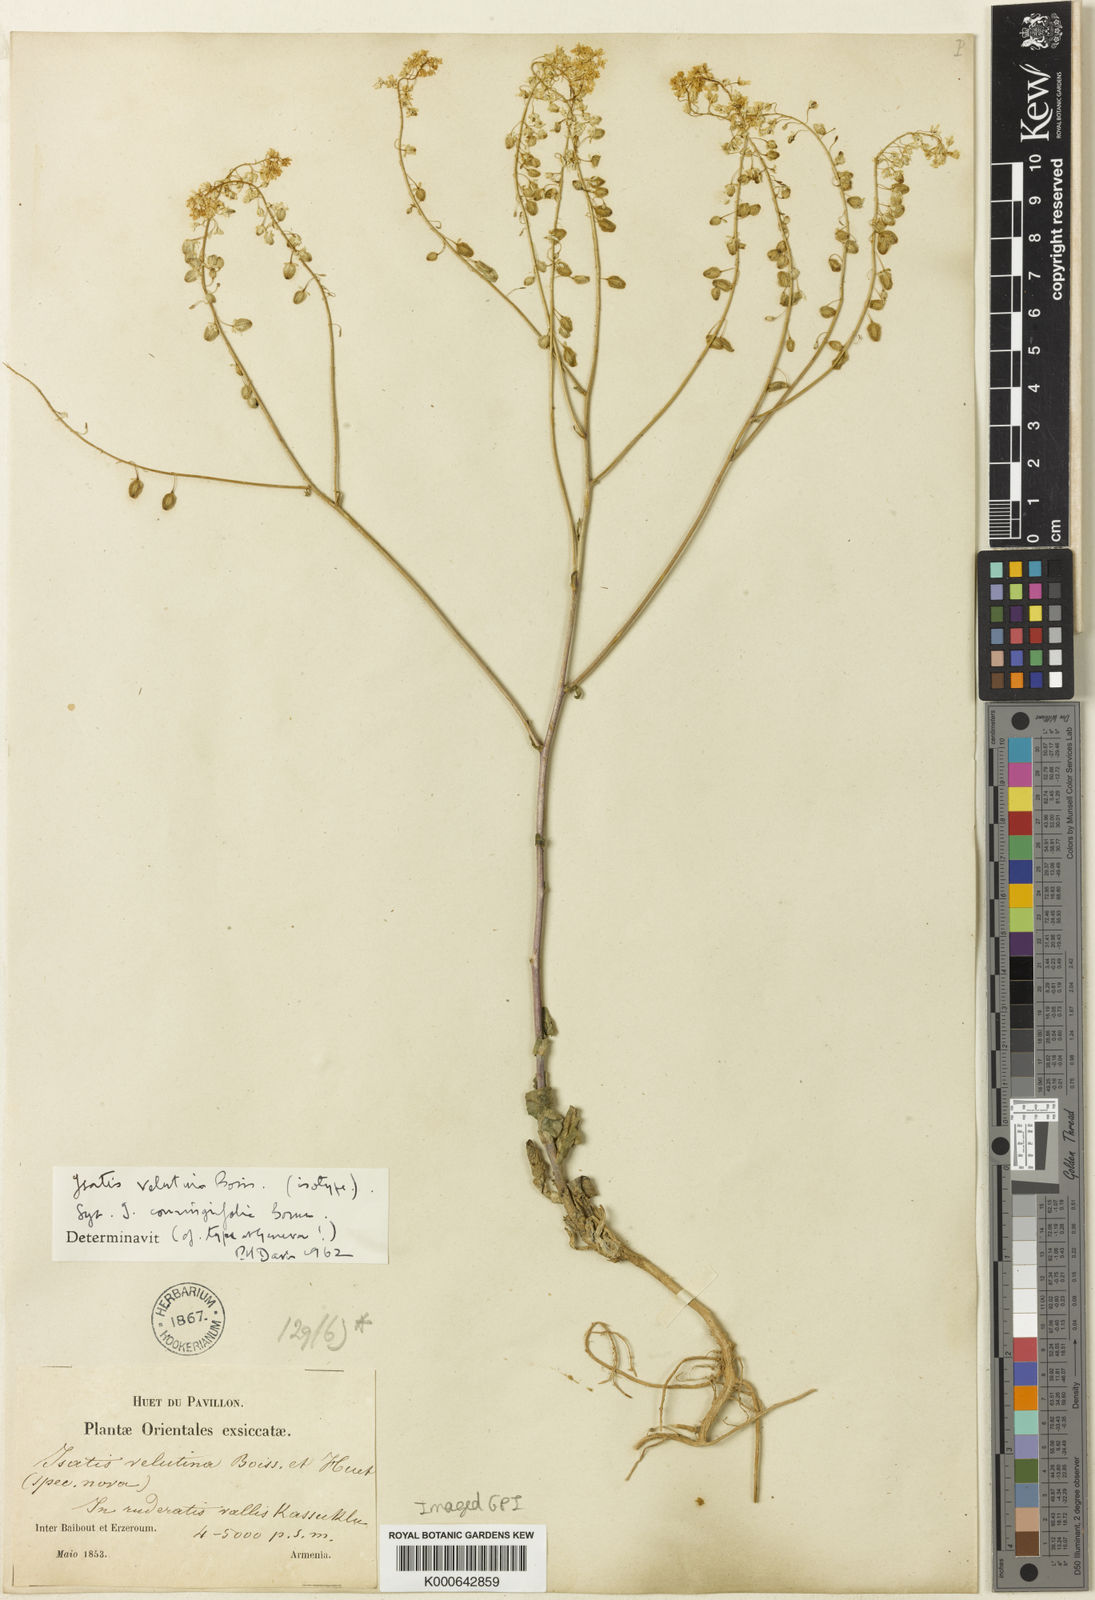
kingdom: Plantae
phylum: Tracheophyta
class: Magnoliopsida
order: Brassicales
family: Brassicaceae
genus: Isatis
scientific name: Isatis candolleana
